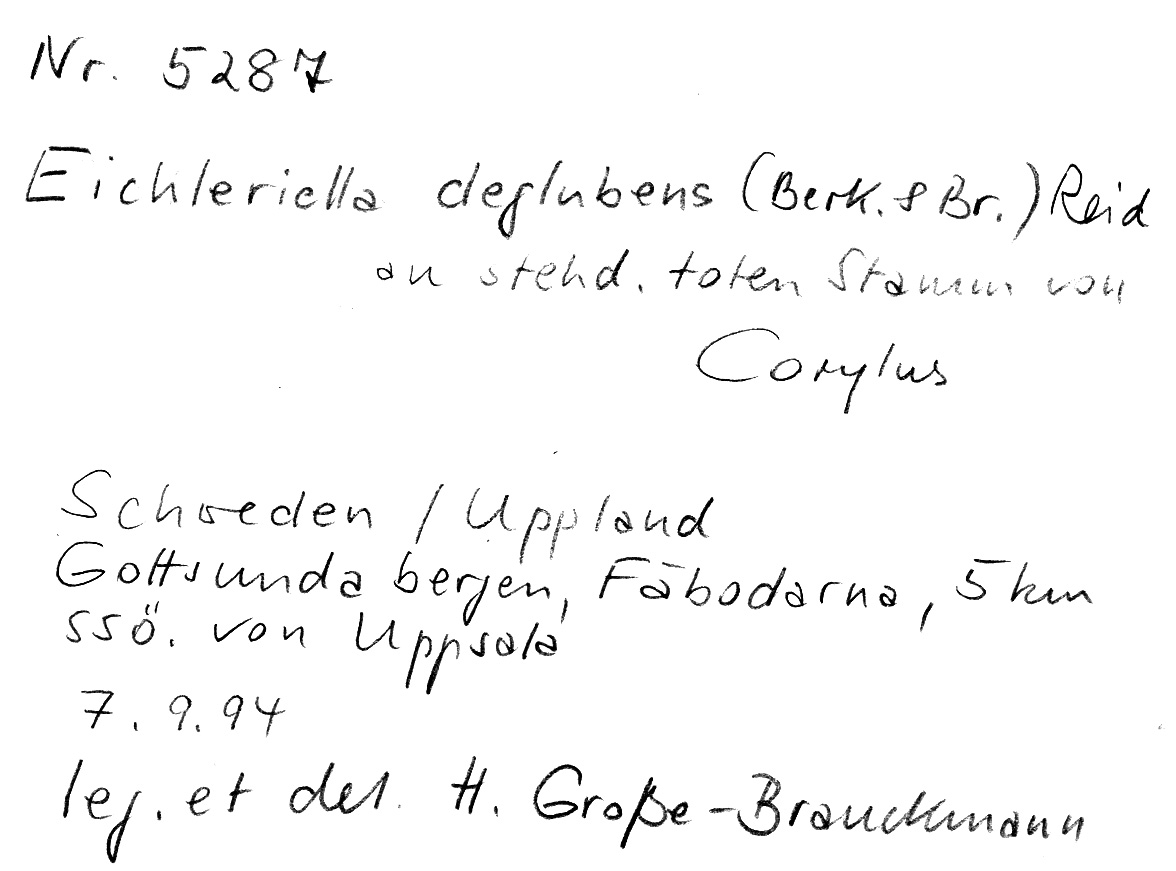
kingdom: Fungi
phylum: Basidiomycota
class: Agaricomycetes
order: Auriculariales
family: Auriculariaceae
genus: Heteroradulum
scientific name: Heteroradulum deglubens
